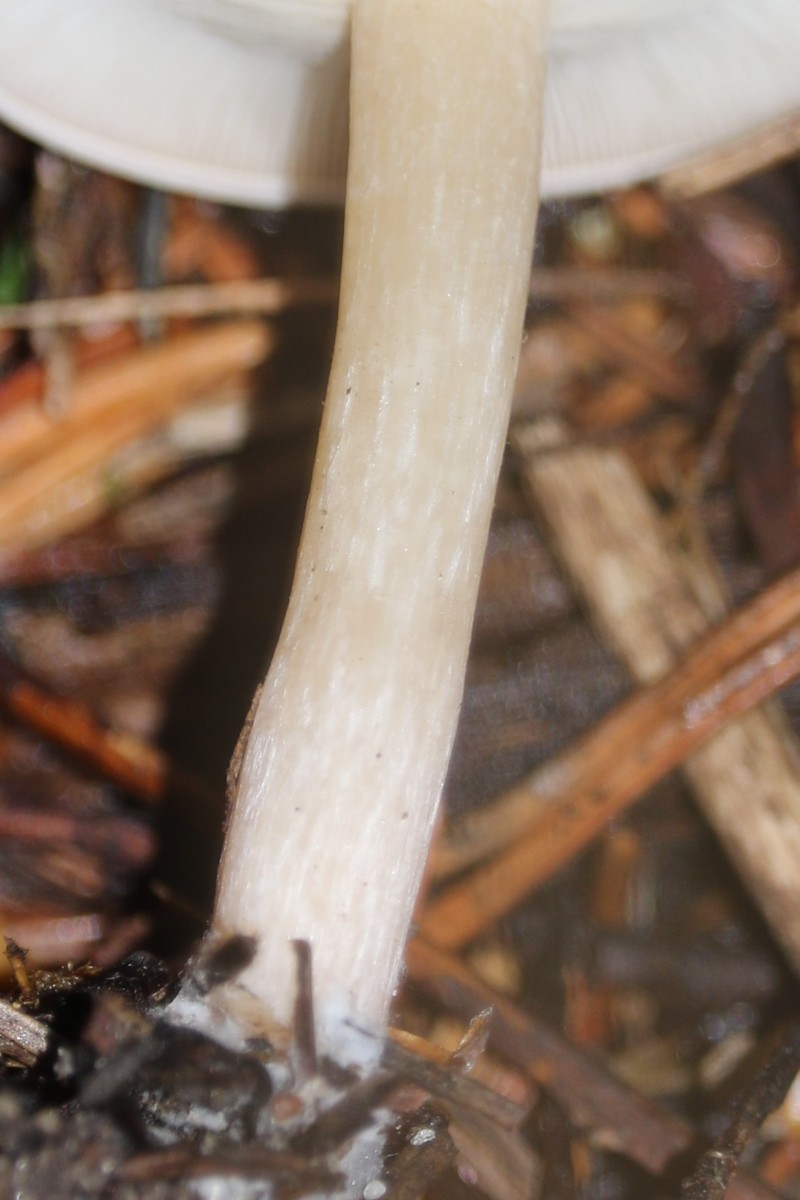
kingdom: Fungi
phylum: Basidiomycota
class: Agaricomycetes
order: Agaricales
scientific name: Agaricales
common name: champignonordenen
